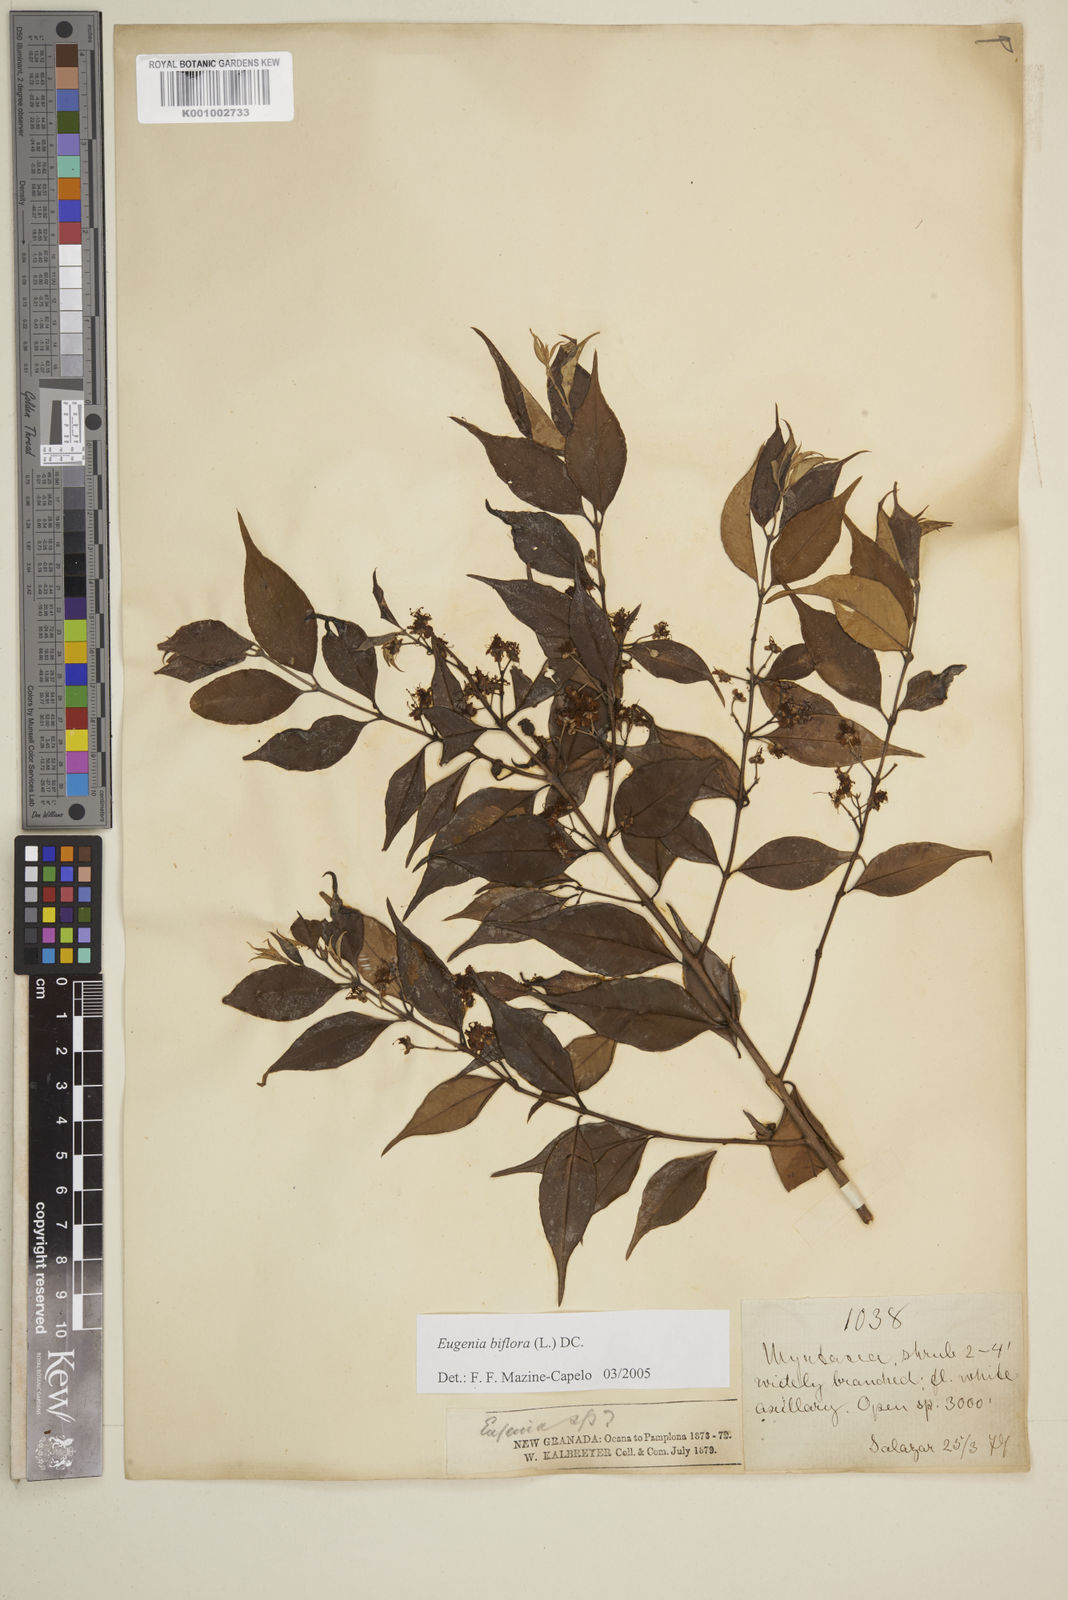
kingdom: Plantae
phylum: Tracheophyta
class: Magnoliopsida
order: Myrtales
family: Myrtaceae
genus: Eugenia
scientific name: Eugenia biflora
